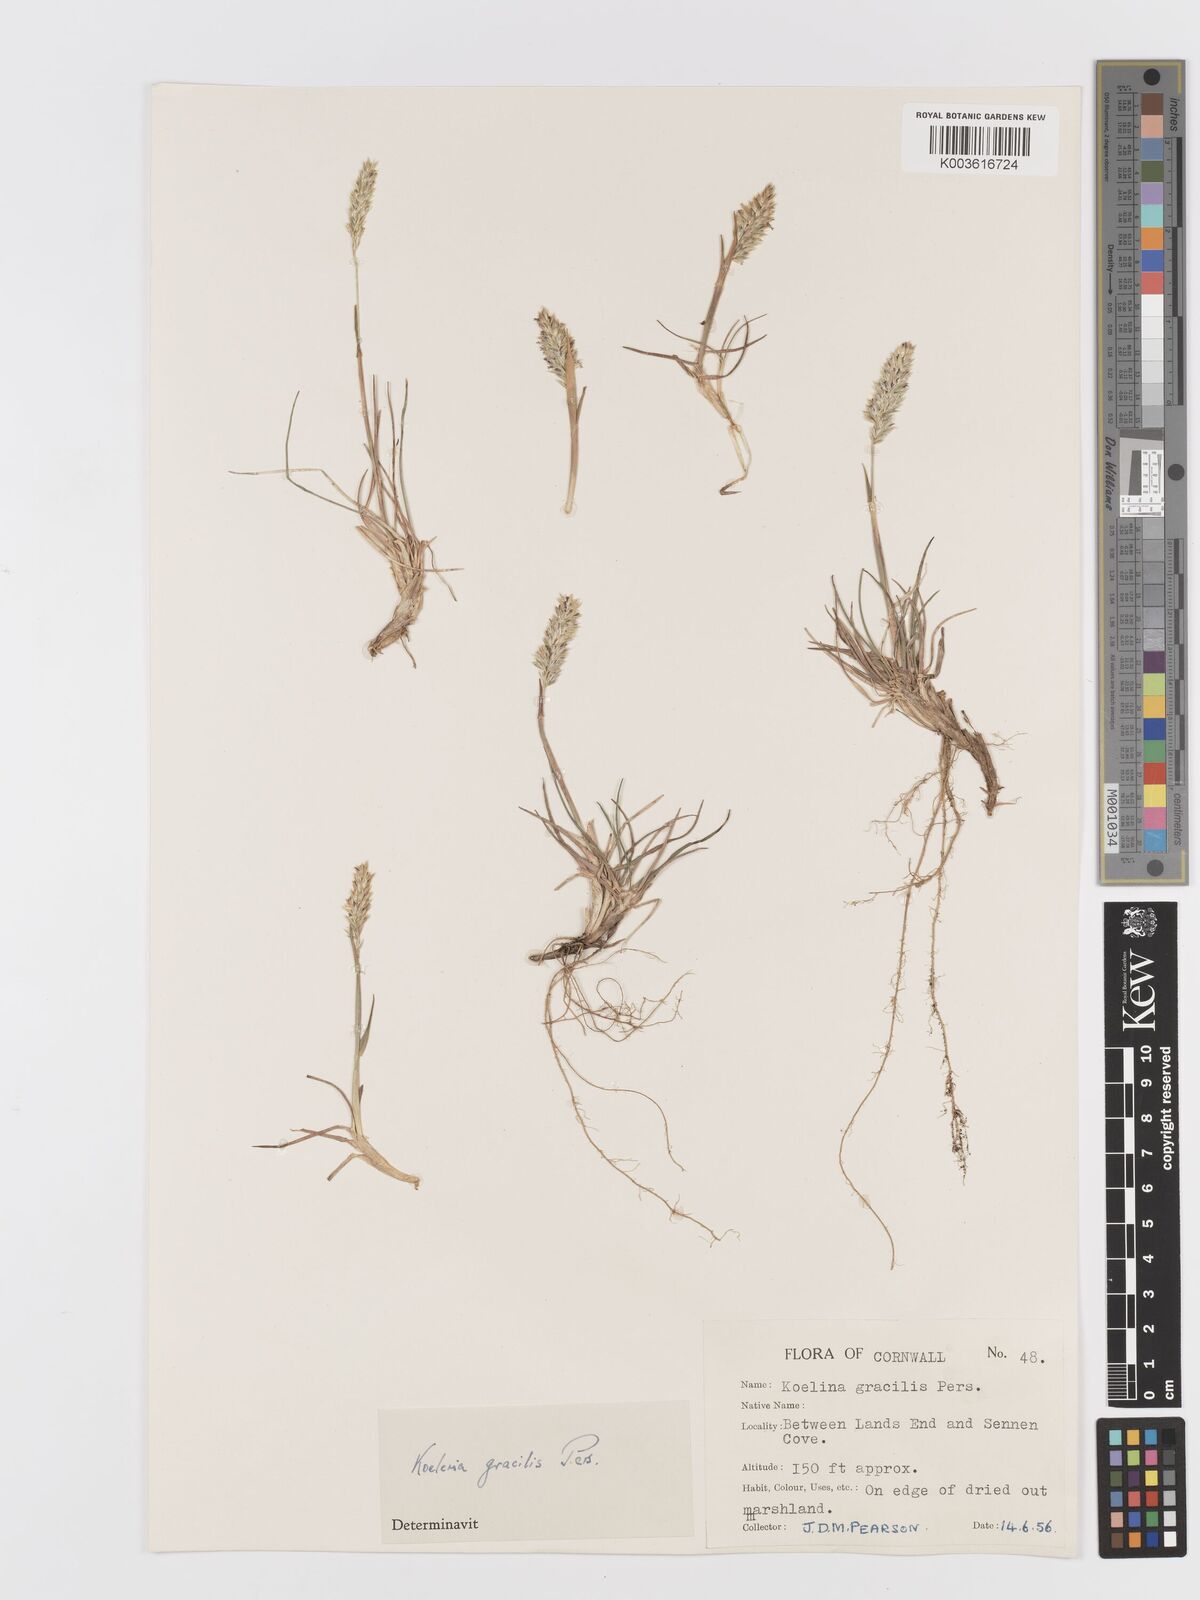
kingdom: Plantae
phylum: Tracheophyta
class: Liliopsida
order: Poales
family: Poaceae
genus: Koeleria
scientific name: Koeleria
